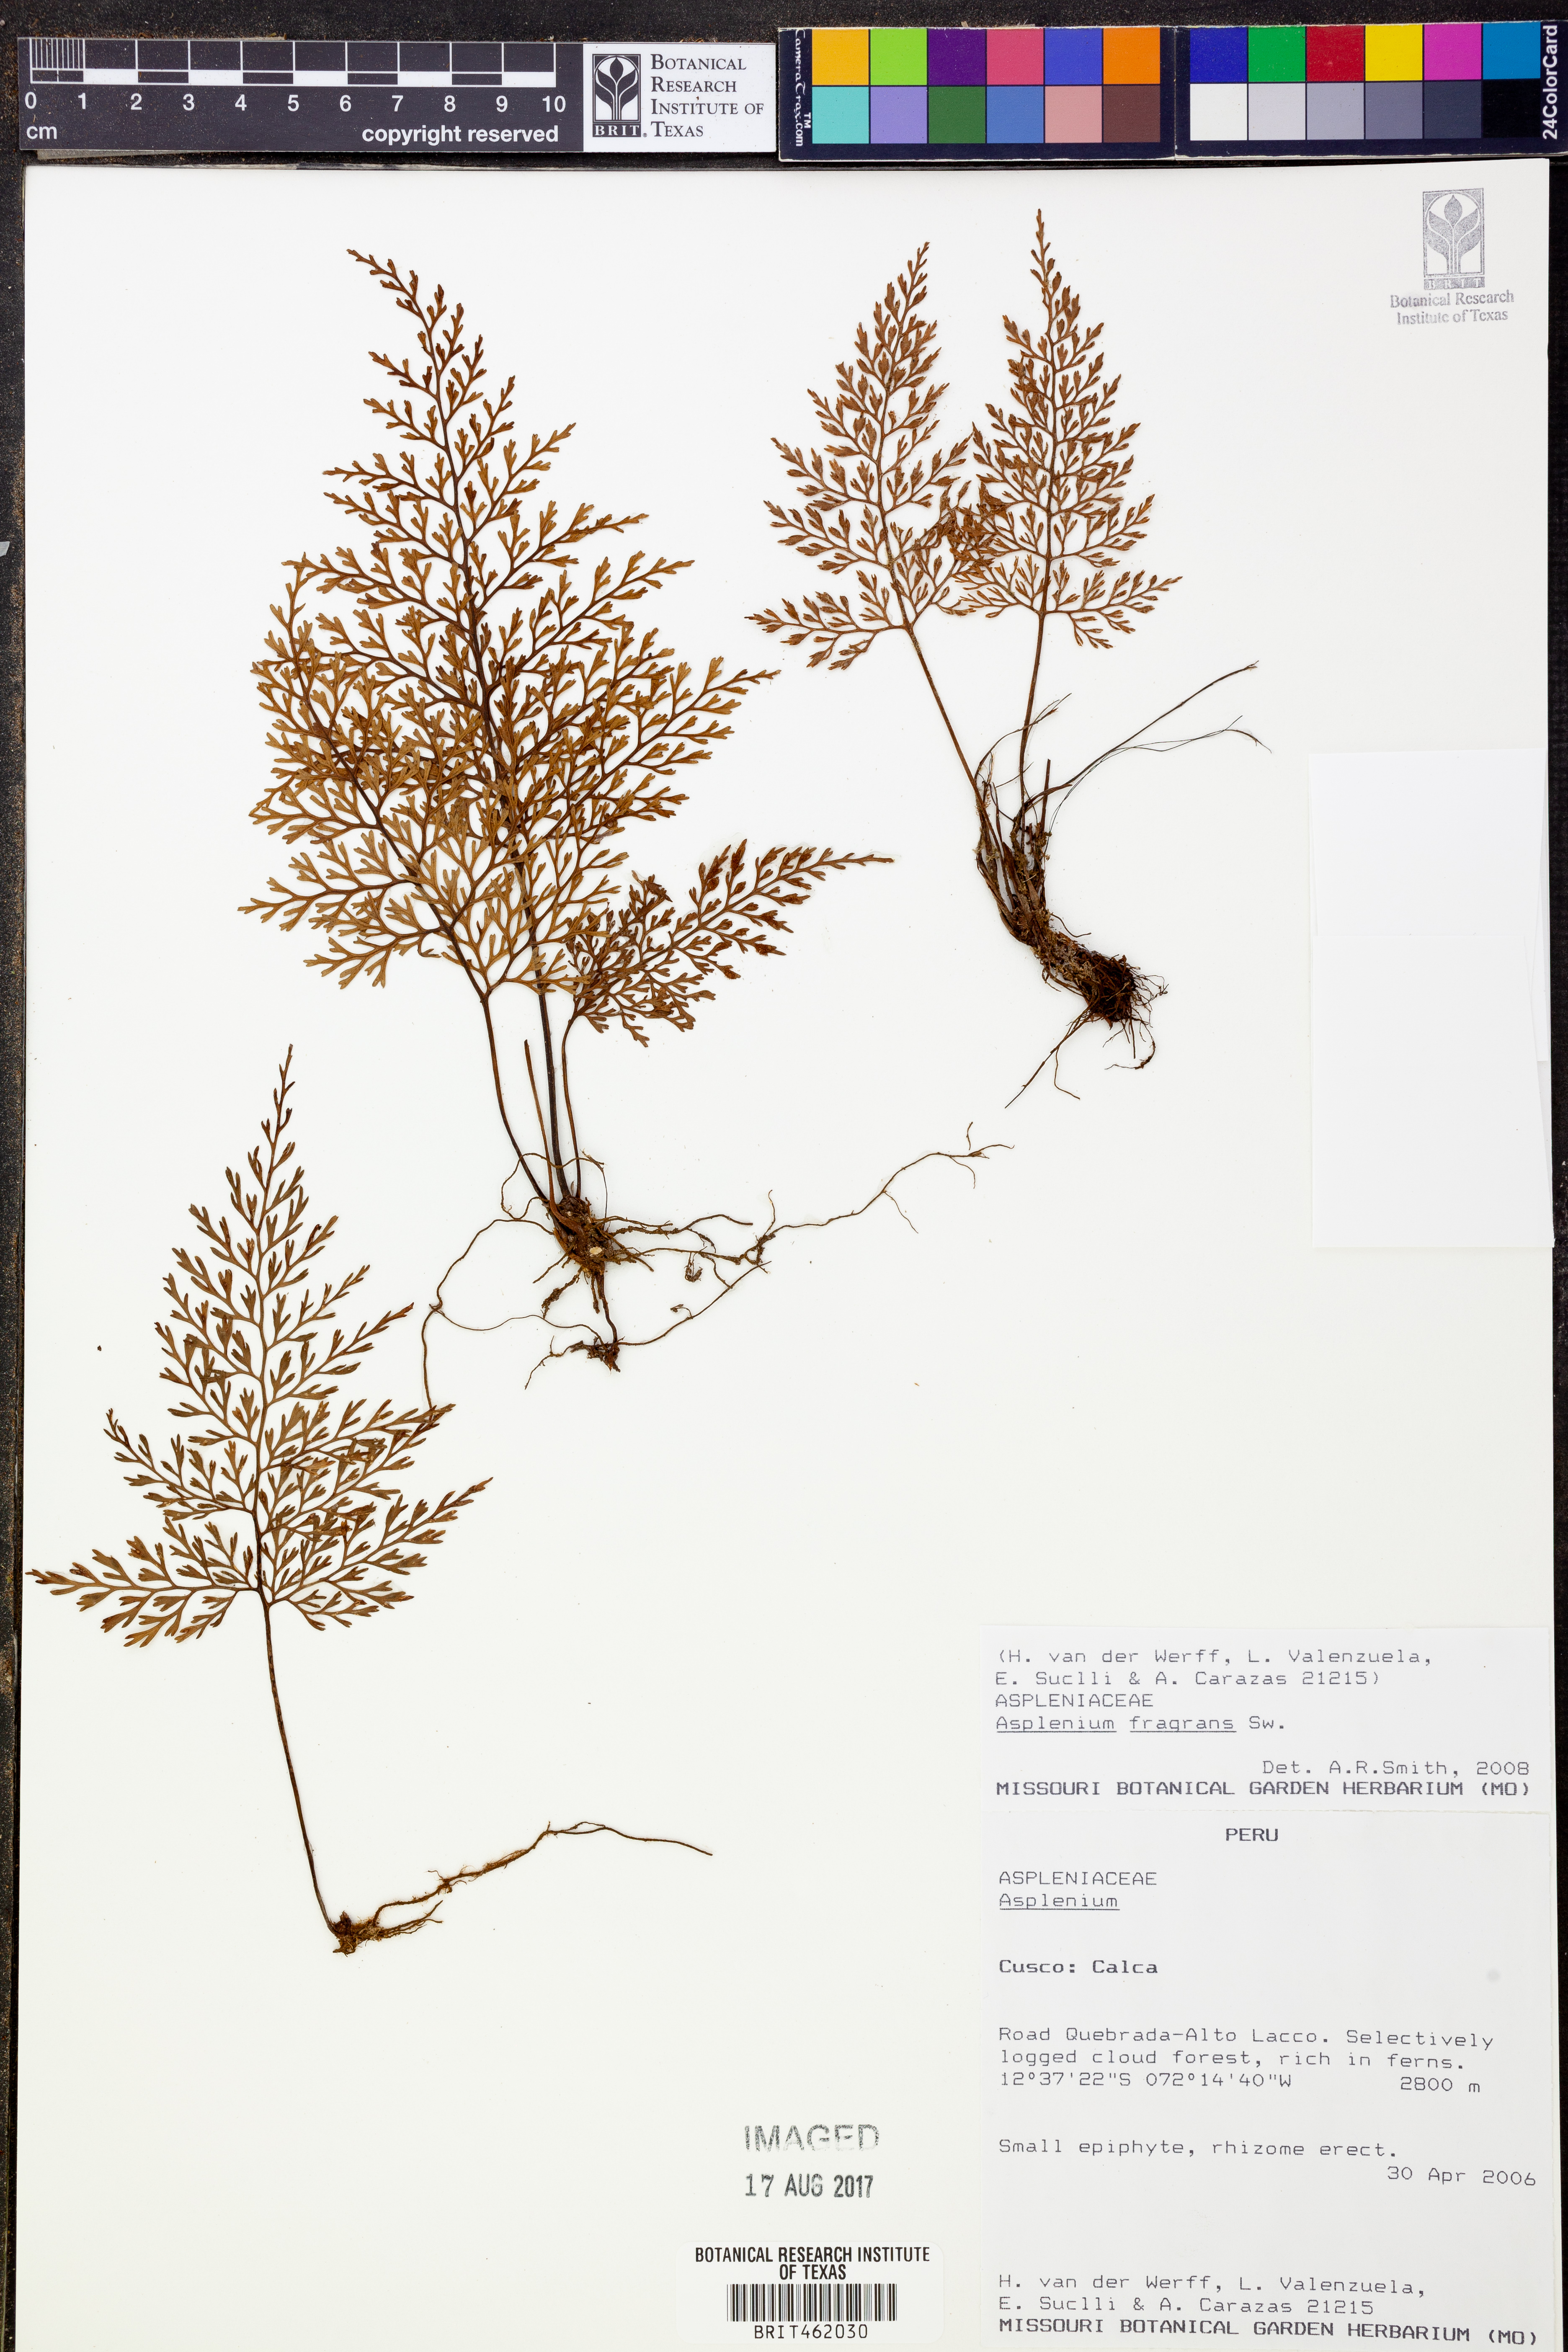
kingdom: Plantae
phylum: Tracheophyta
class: Polypodiopsida
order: Polypodiales
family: Aspleniaceae
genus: Asplenium
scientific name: Asplenium hastatum
